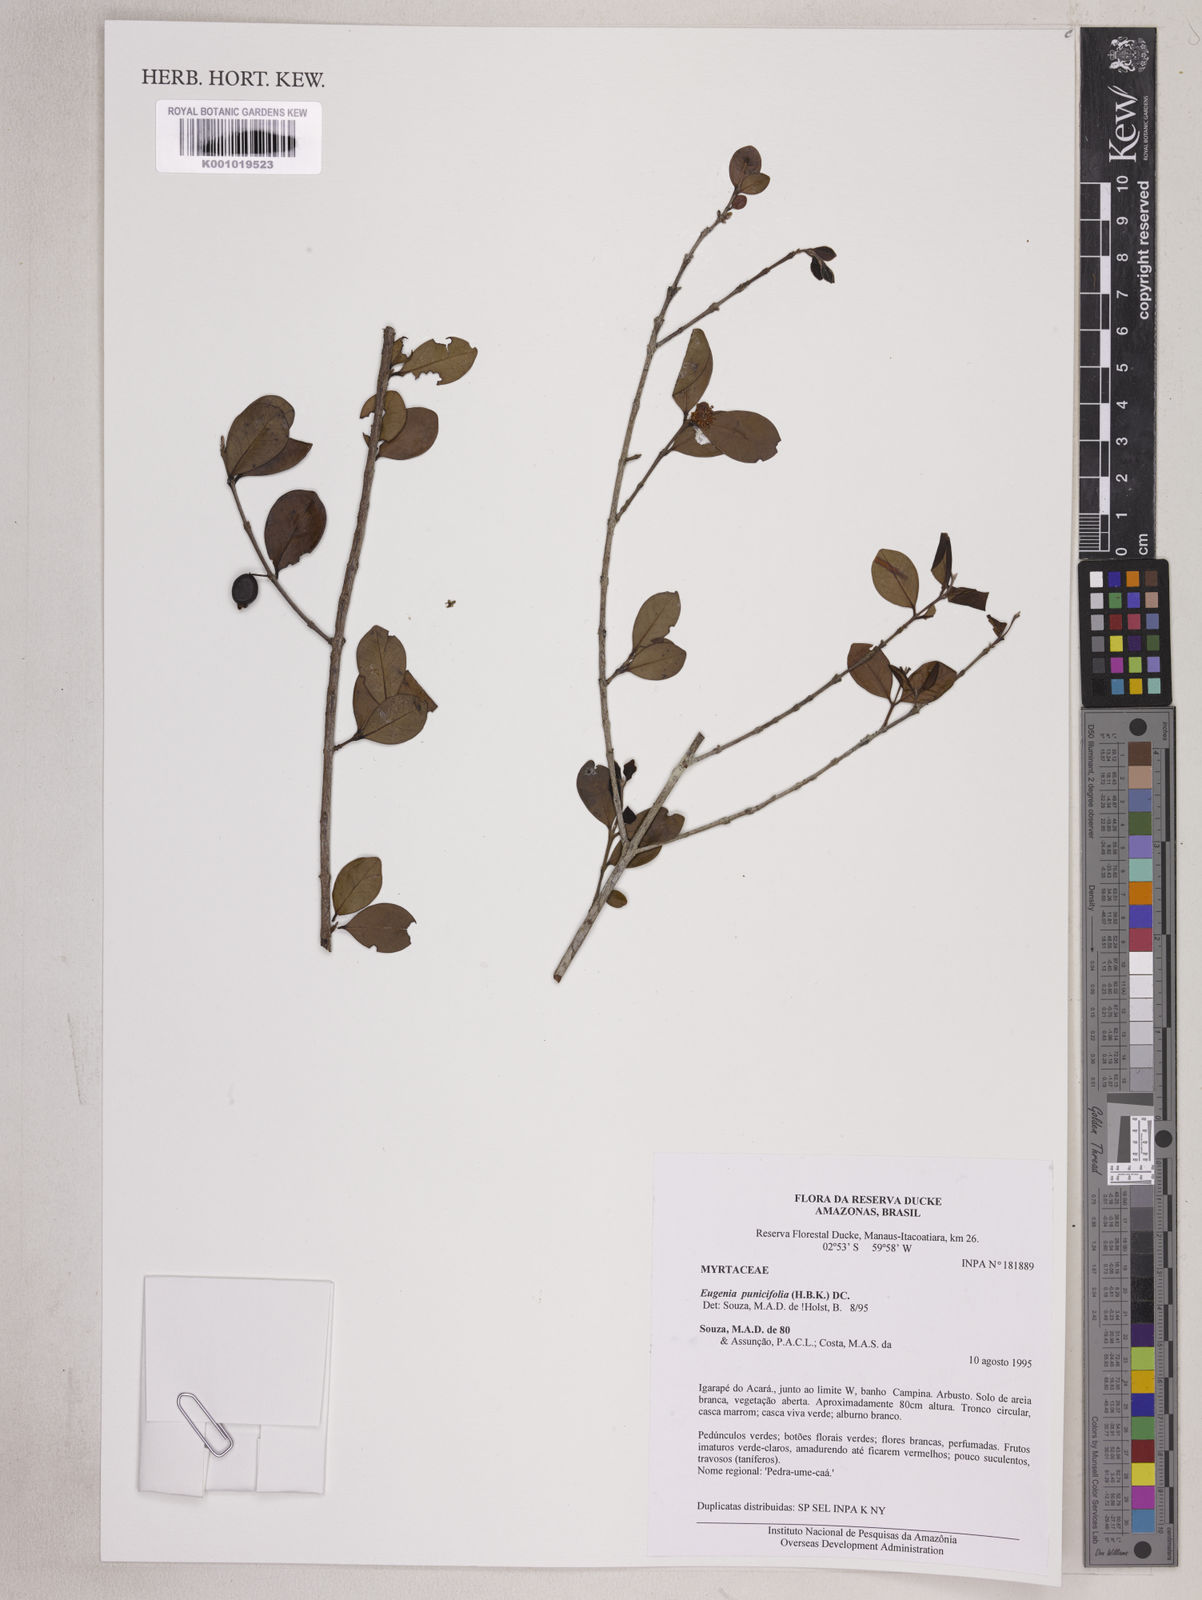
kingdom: Plantae
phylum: Tracheophyta
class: Magnoliopsida
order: Myrtales
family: Myrtaceae
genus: Eugenia
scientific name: Eugenia punicifolia
